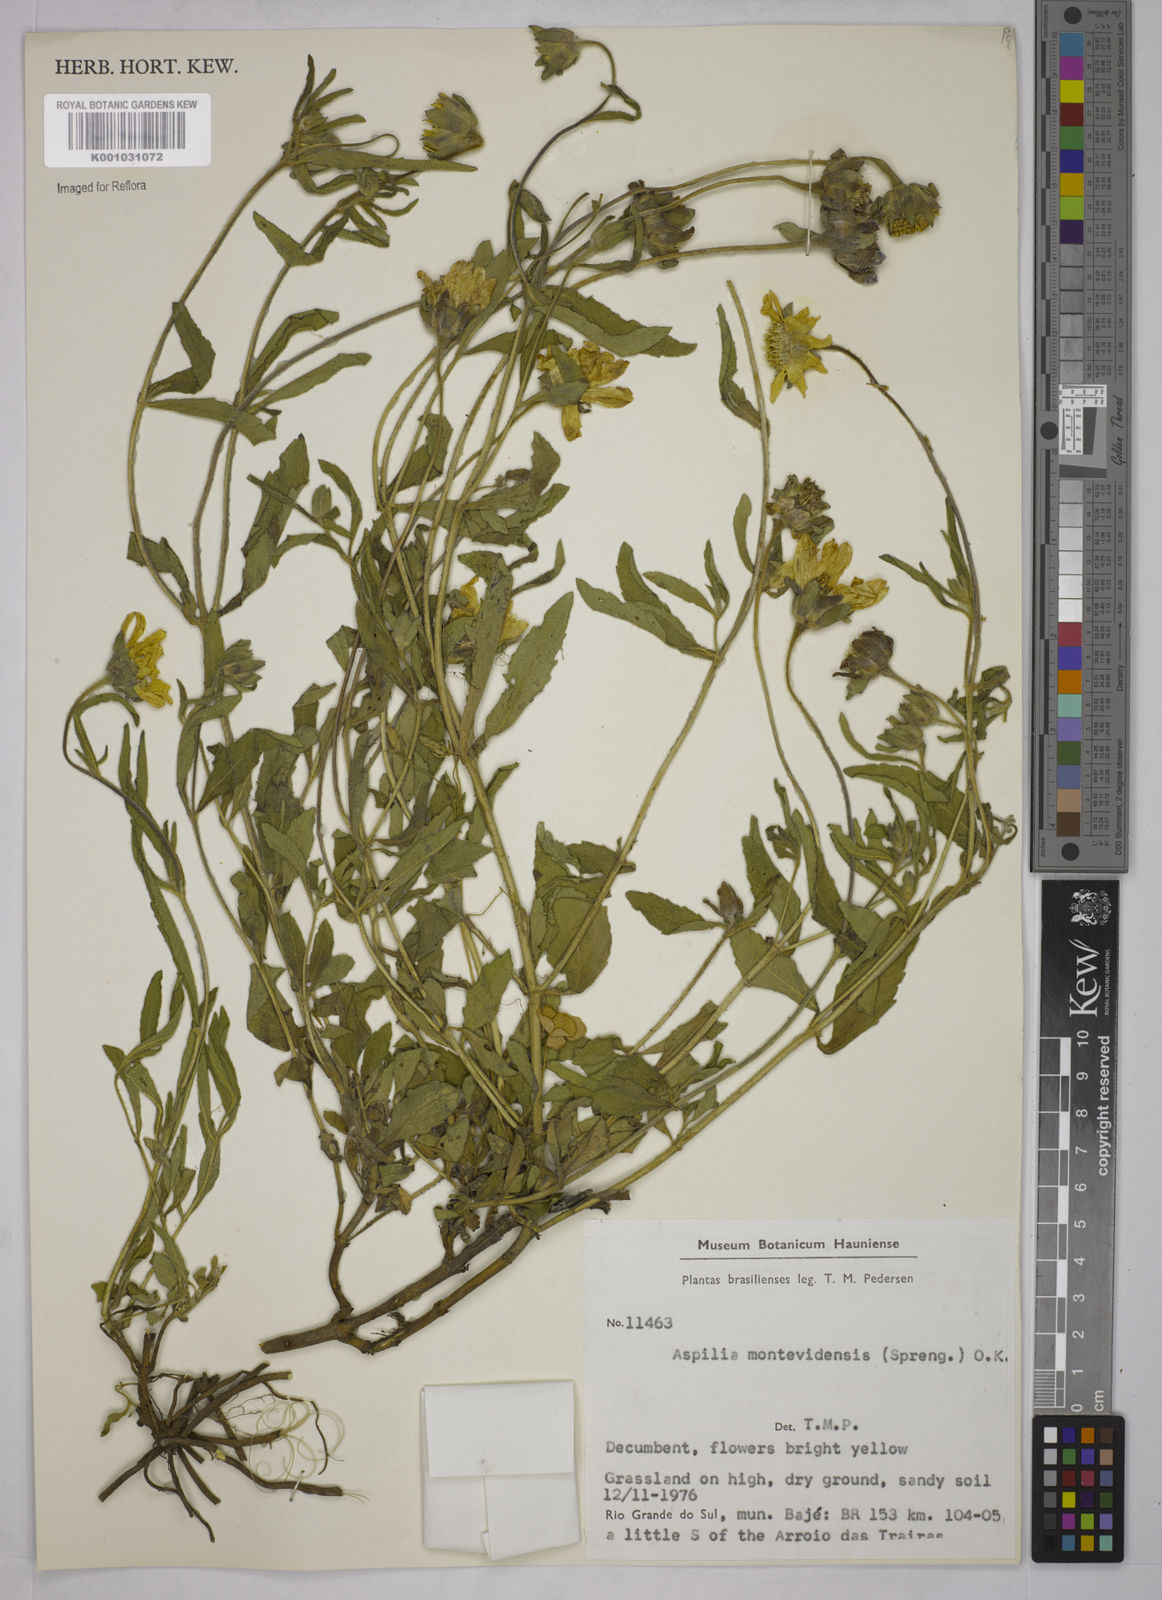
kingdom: Plantae
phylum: Tracheophyta
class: Magnoliopsida
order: Asterales
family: Asteraceae
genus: Wedelia
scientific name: Wedelia montevidensis
